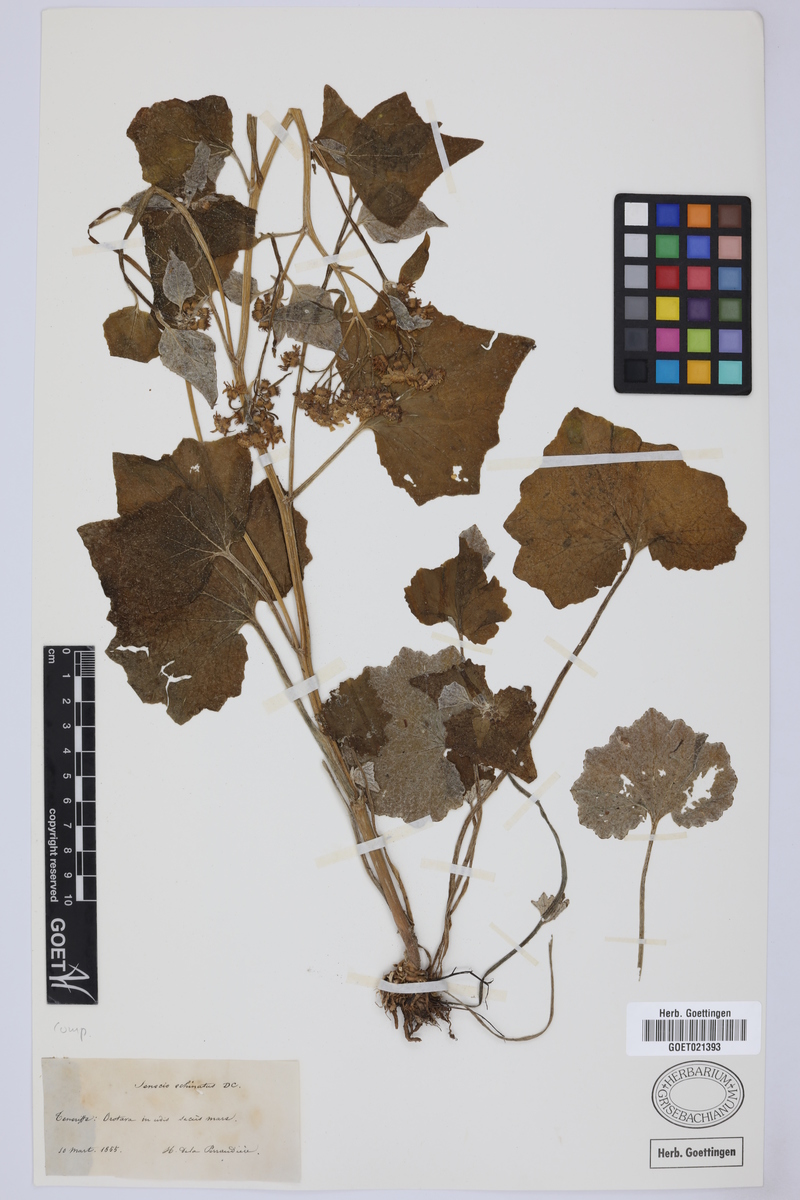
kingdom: Plantae
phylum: Tracheophyta
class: Magnoliopsida
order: Asterales
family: Asteraceae
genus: Pericallis
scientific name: Pericallis echinata
